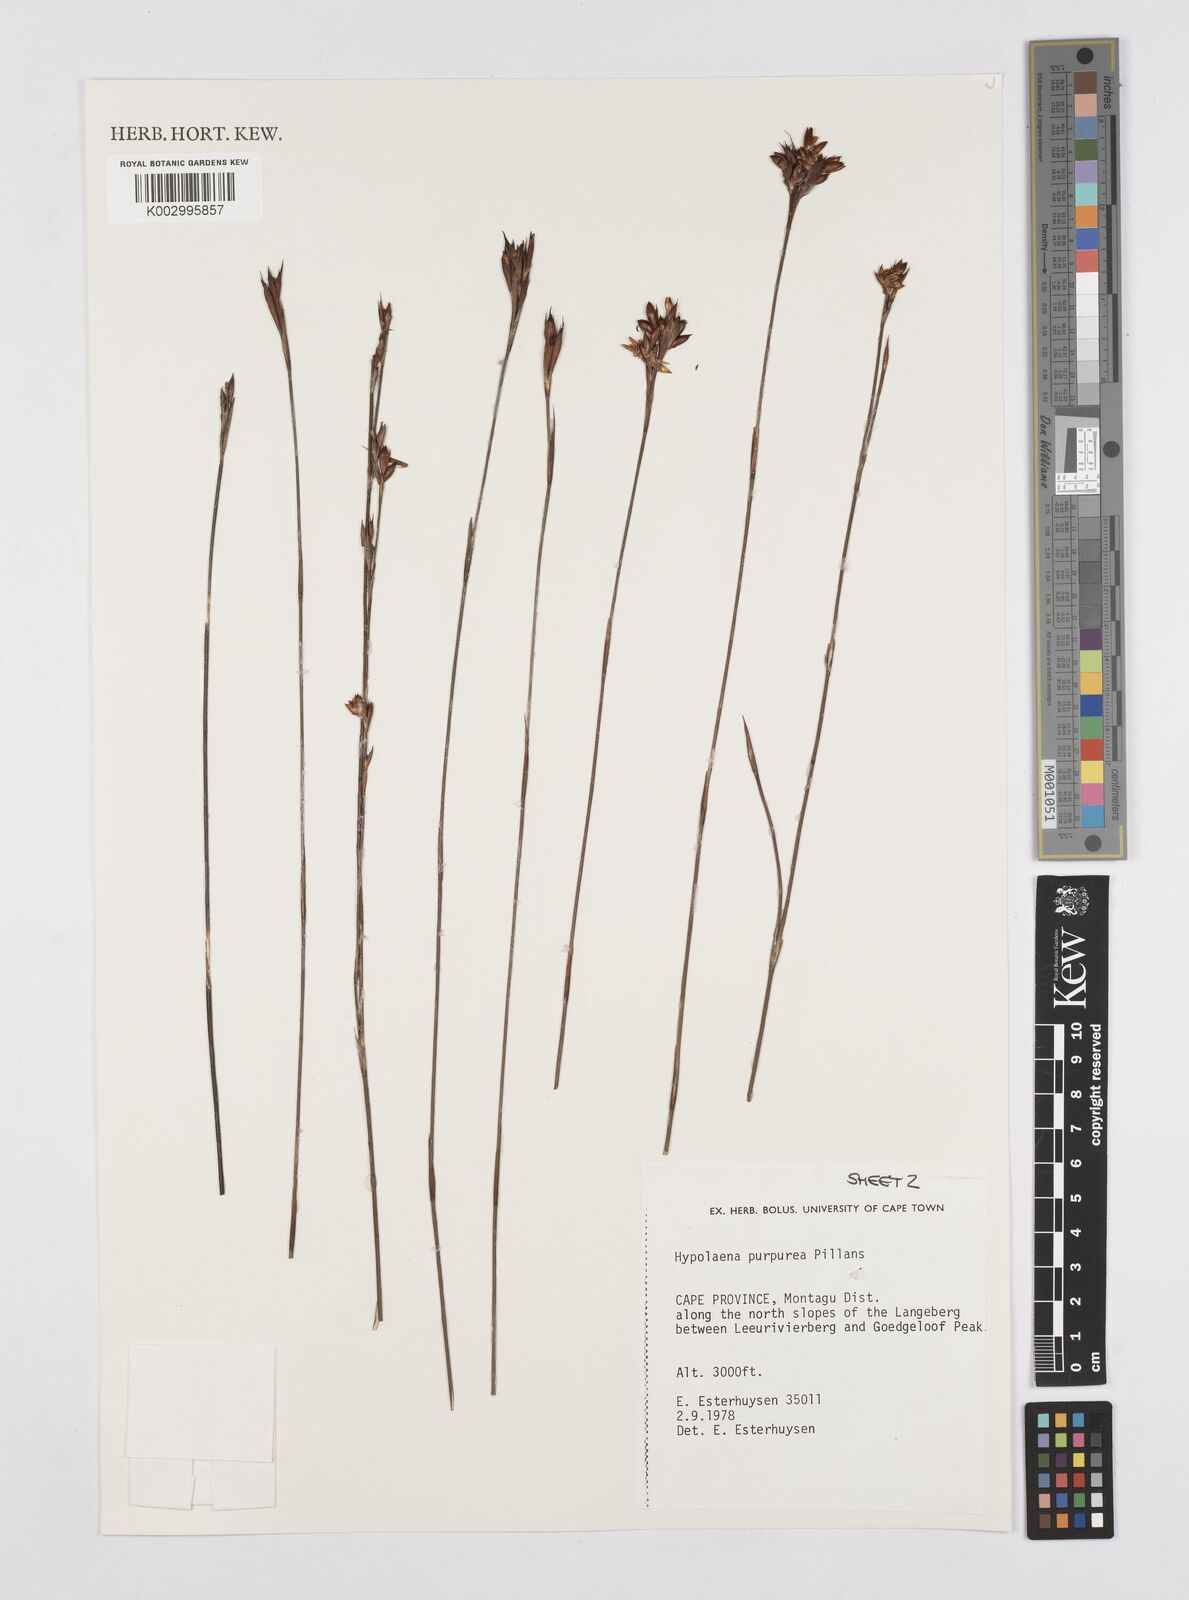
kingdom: Plantae
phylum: Tracheophyta
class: Liliopsida
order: Poales
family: Restionaceae
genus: Mastersiella
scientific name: Mastersiella purpurea
